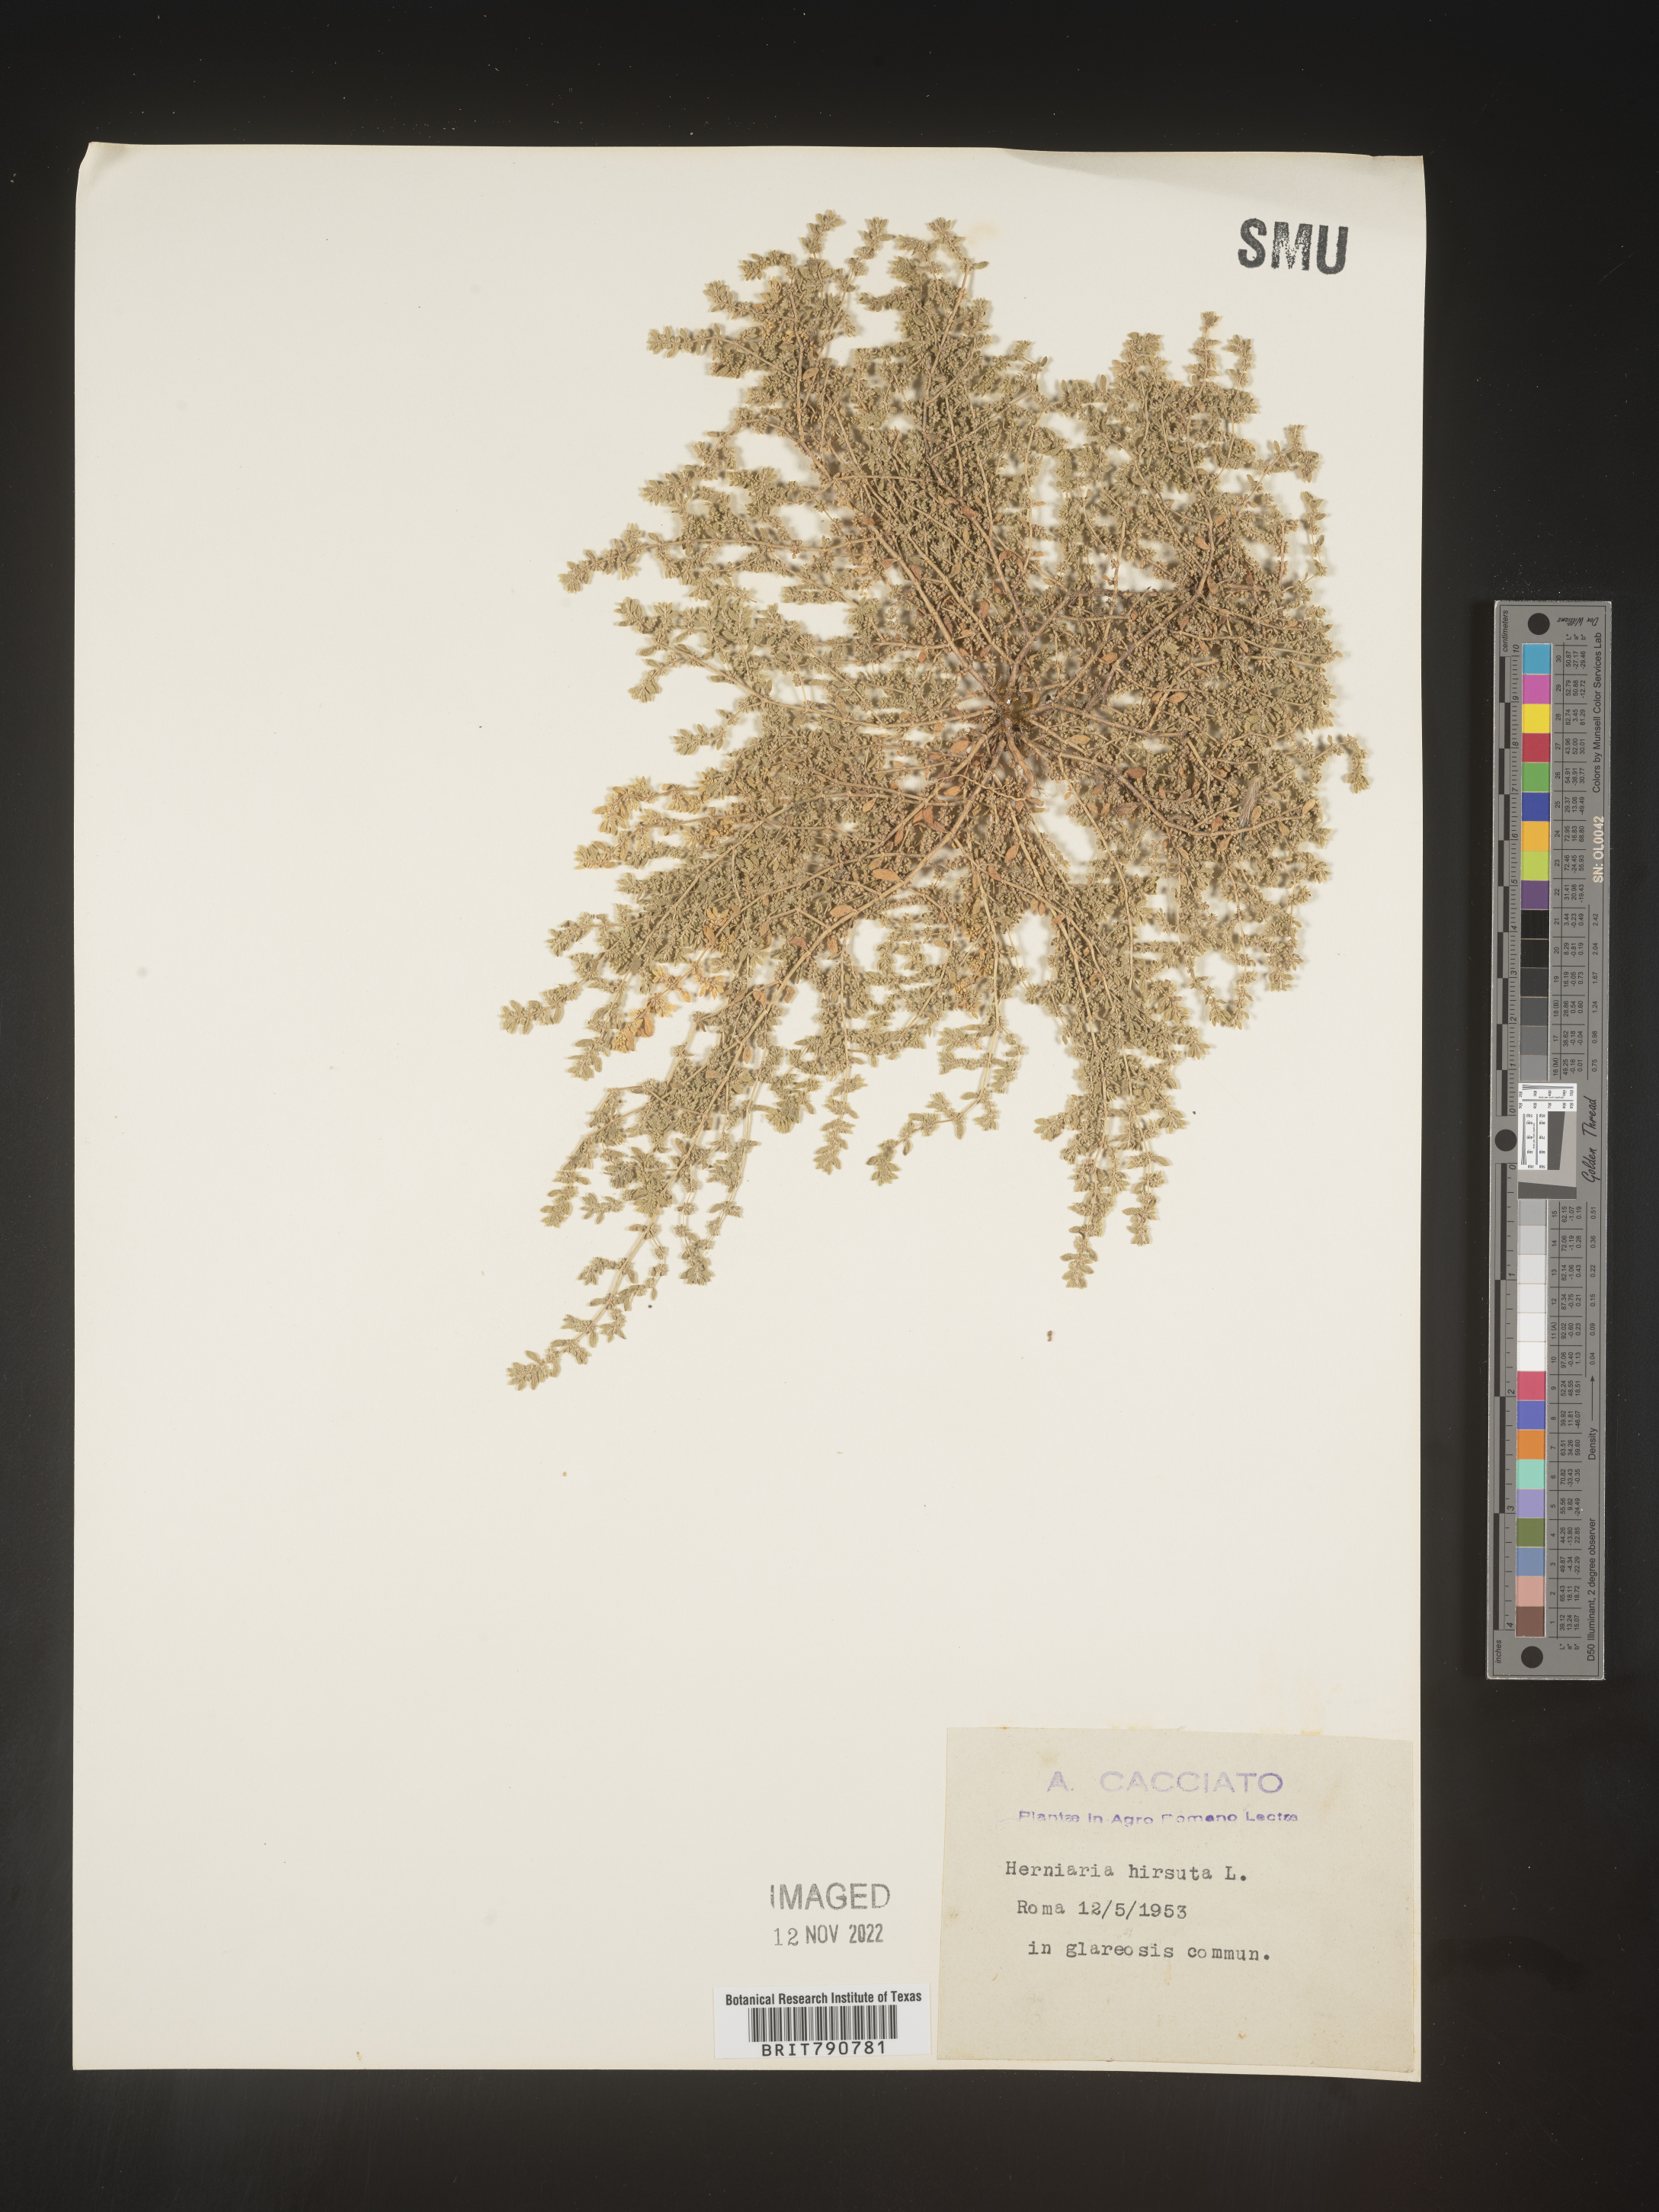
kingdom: Plantae
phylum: Tracheophyta
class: Magnoliopsida
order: Caryophyllales
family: Caryophyllaceae
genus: Herniaria
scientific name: Herniaria
